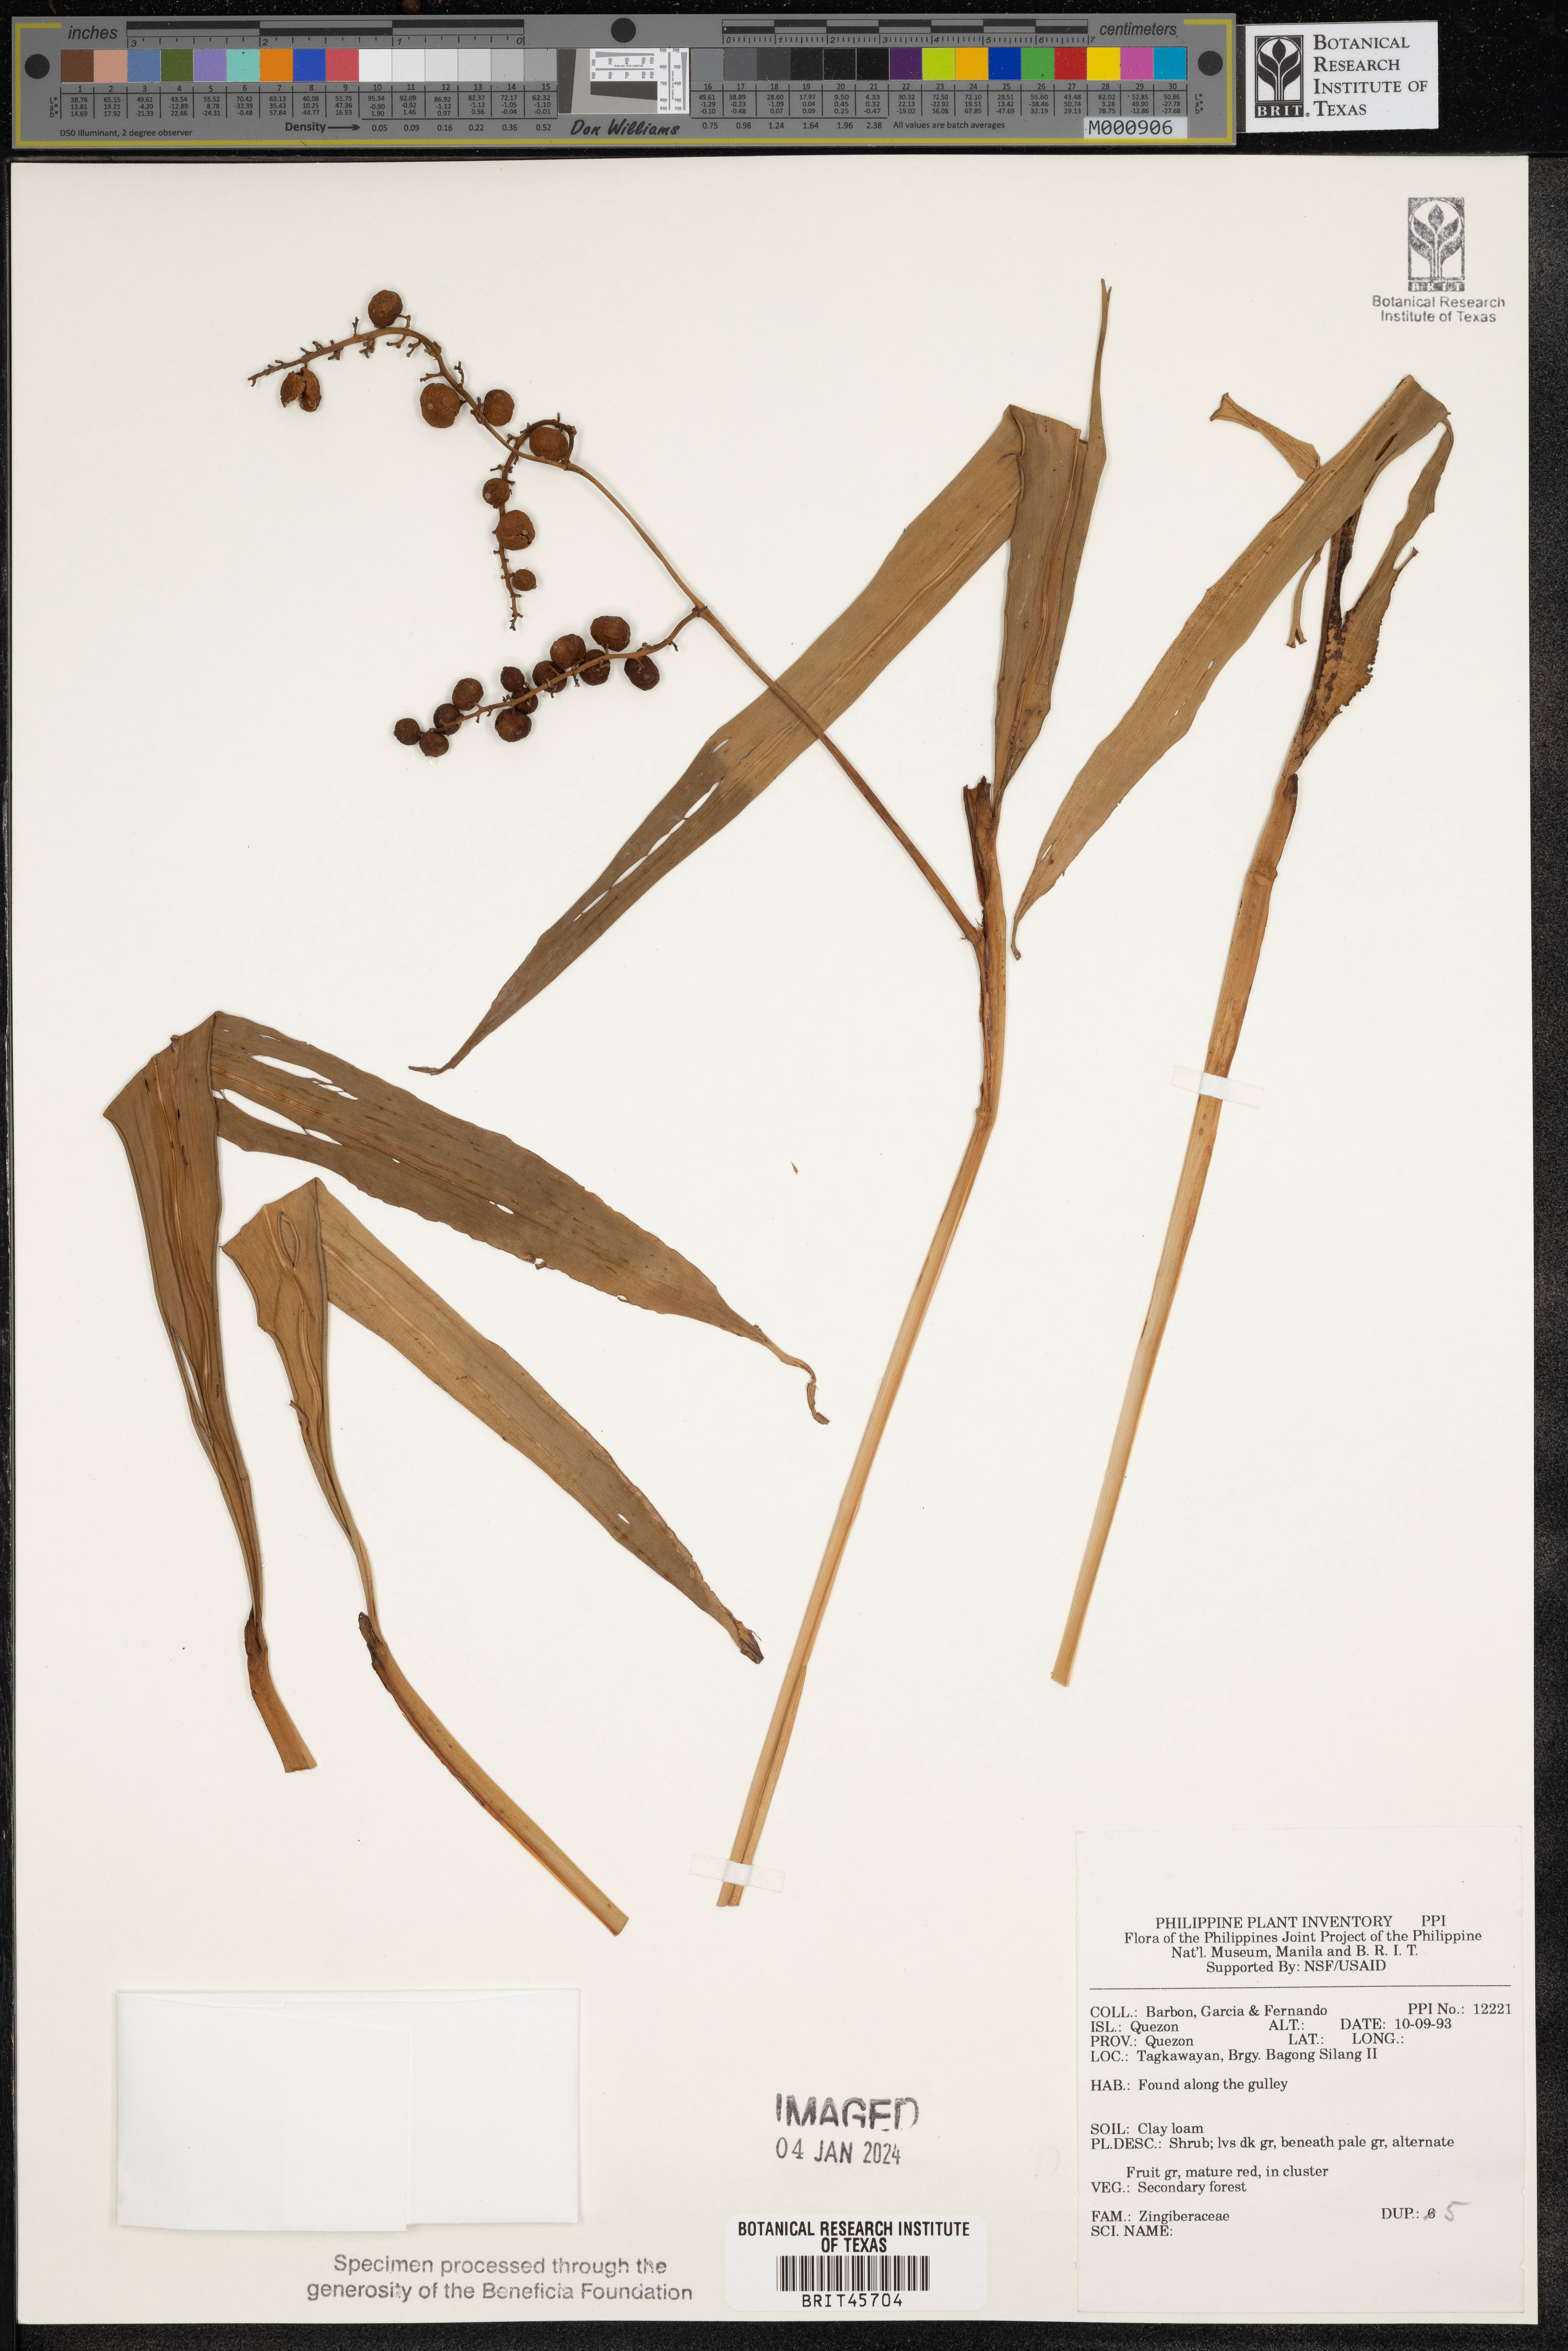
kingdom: Plantae
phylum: Tracheophyta
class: Liliopsida
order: Zingiberales
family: Zingiberaceae
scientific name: Zingiberaceae
